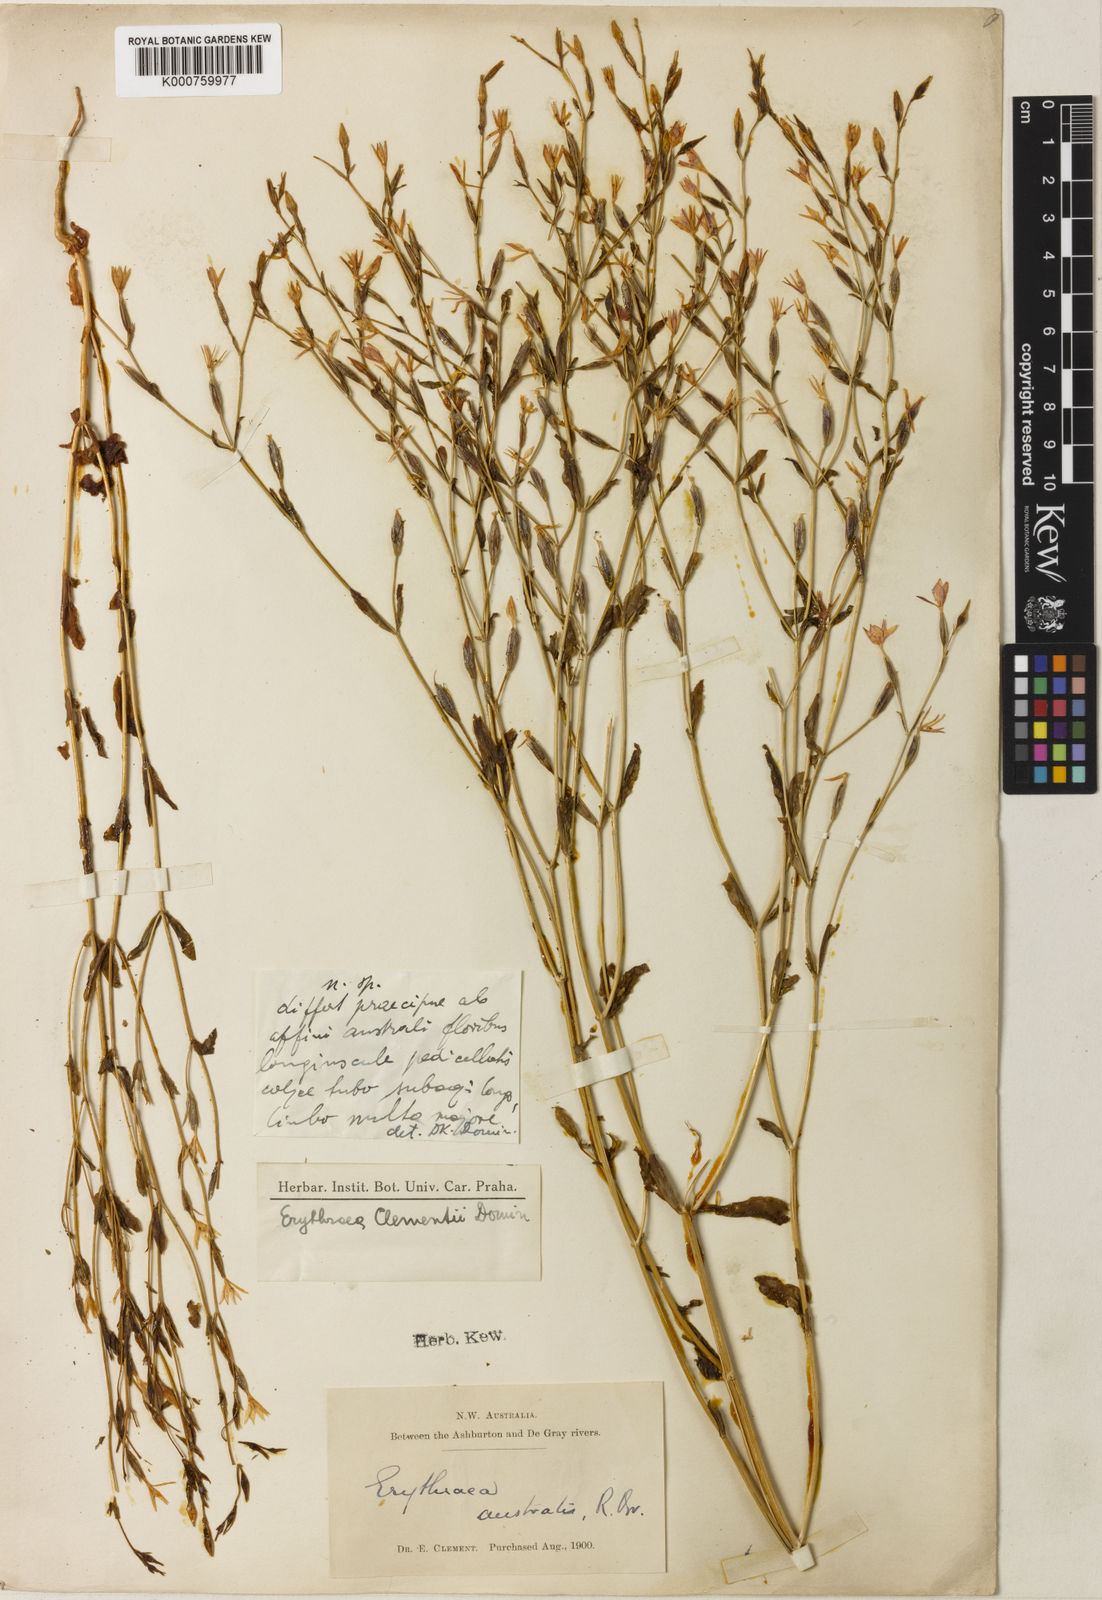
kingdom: Plantae
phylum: Tracheophyta
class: Magnoliopsida
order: Gentianales
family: Gentianaceae
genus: Schenkia
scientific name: Schenkia clementii
